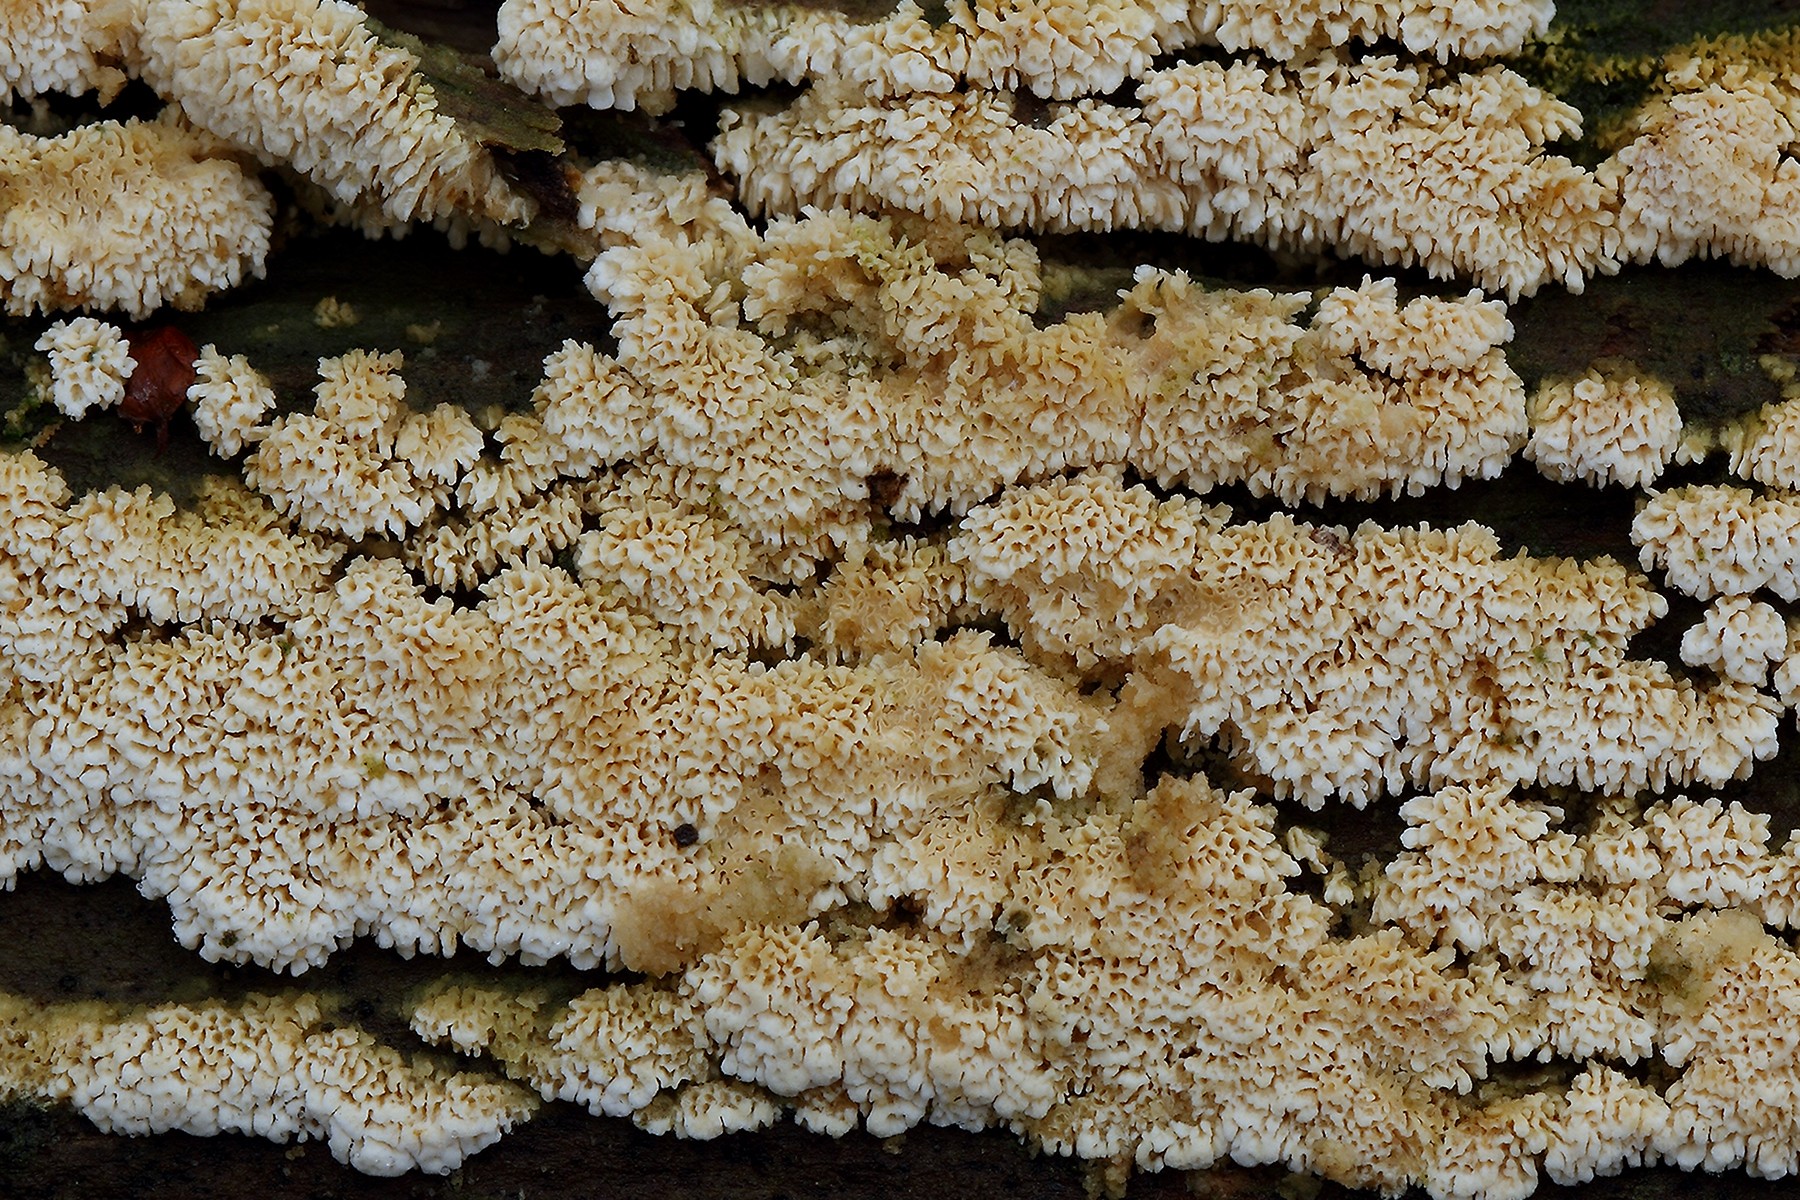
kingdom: Fungi
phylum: Basidiomycota
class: Agaricomycetes
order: Hymenochaetales
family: Schizoporaceae
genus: Schizopora
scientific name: Schizopora paradoxa
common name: hvid tandsvamp
